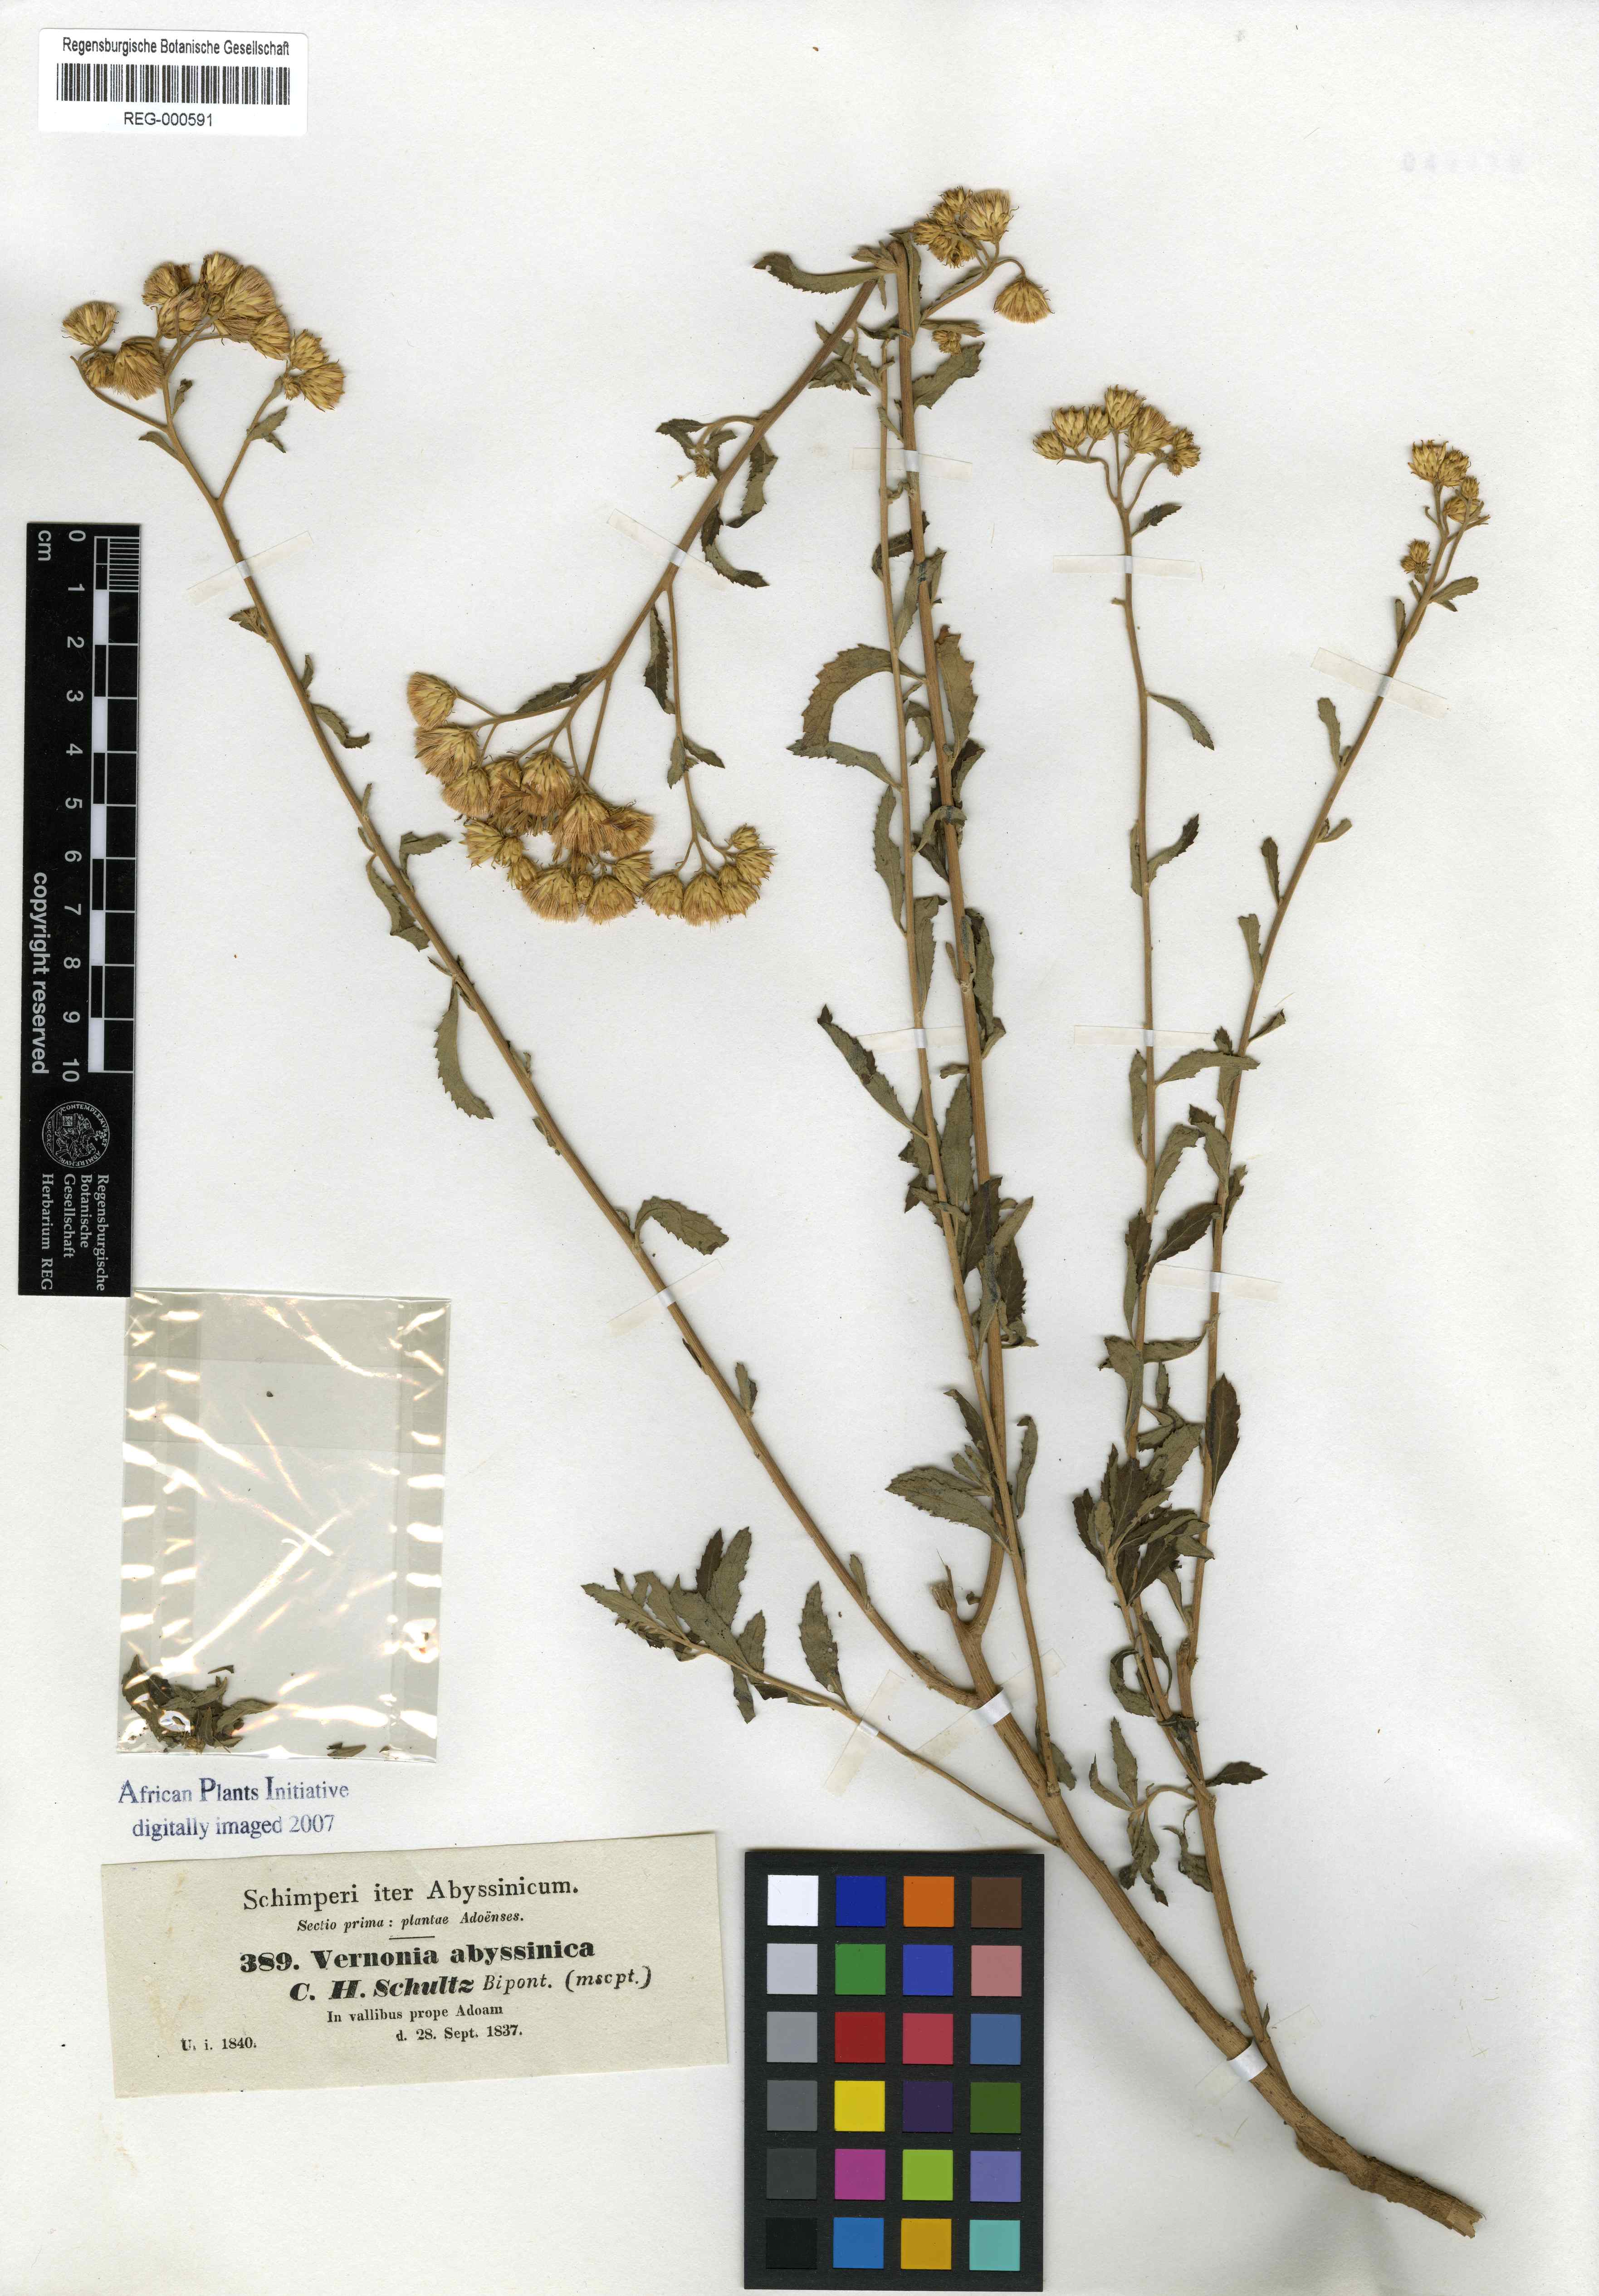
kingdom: Plantae
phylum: Tracheophyta
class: Magnoliopsida
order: Asterales
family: Asteraceae
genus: Baccharoides
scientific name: Baccharoides schimperi
